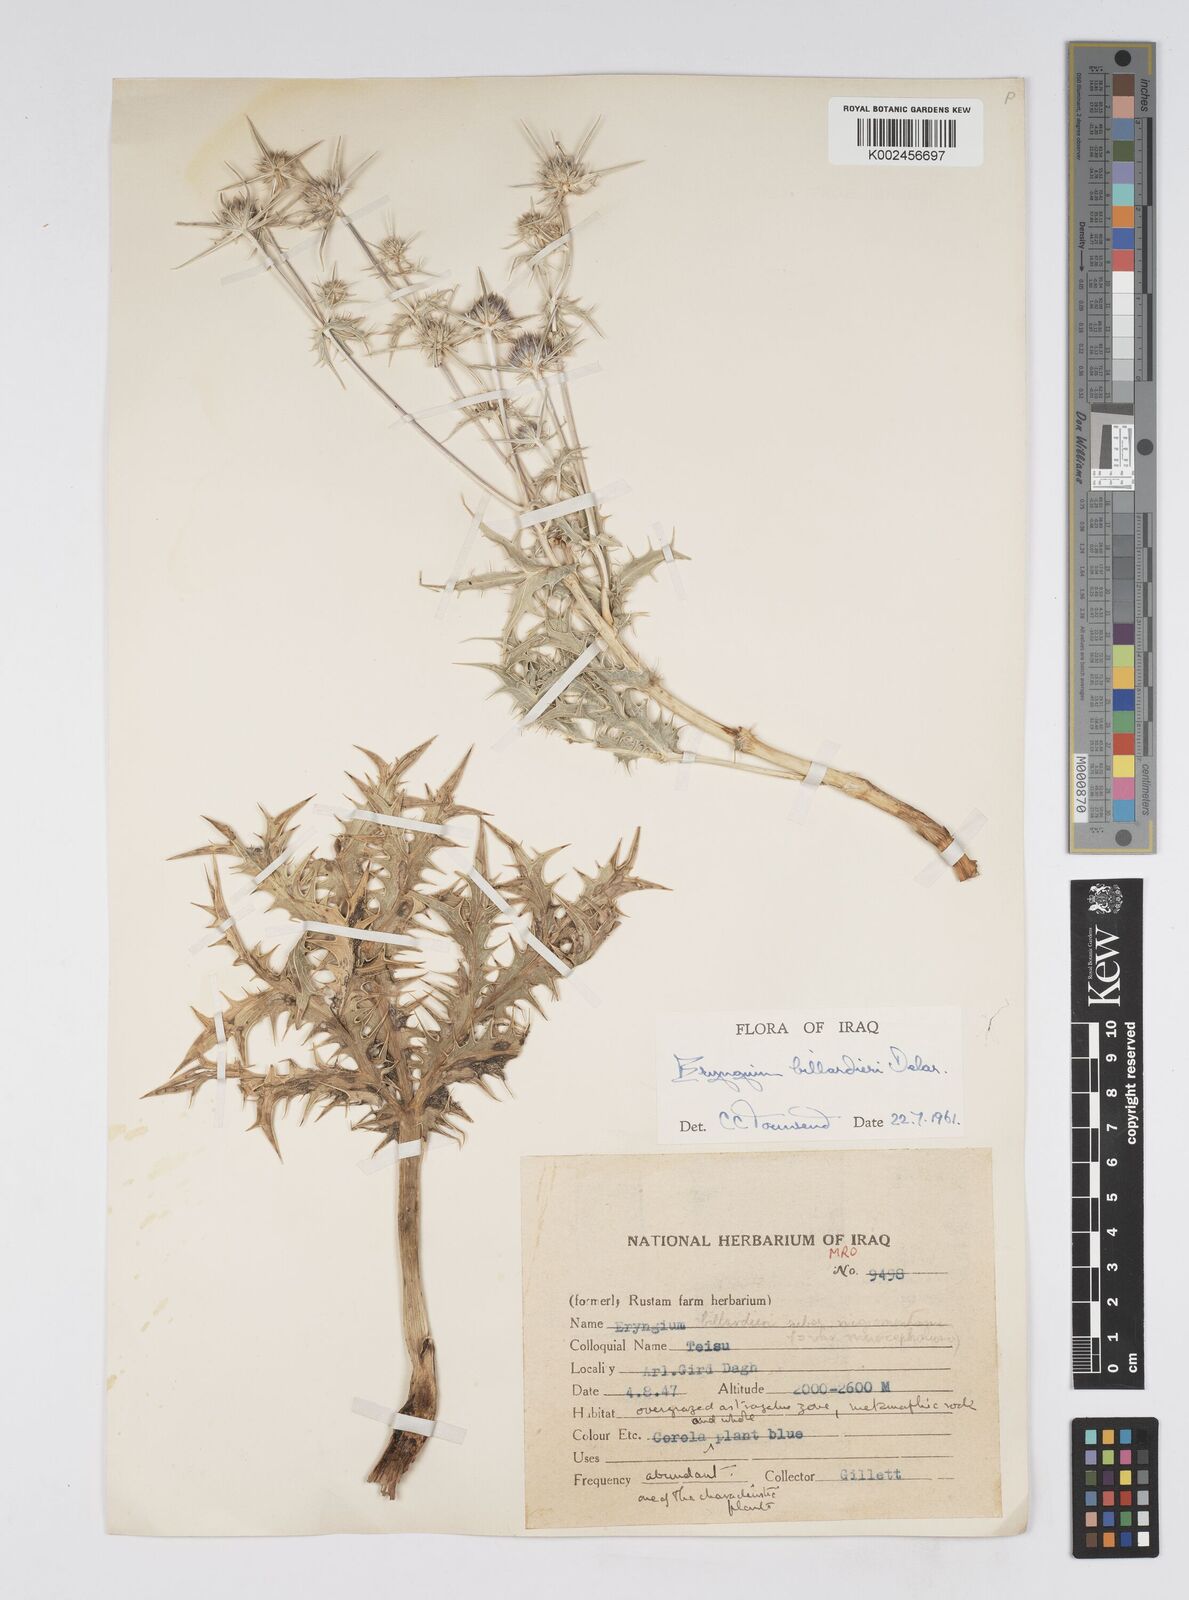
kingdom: Plantae
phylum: Tracheophyta
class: Magnoliopsida
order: Apiales
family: Apiaceae
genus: Eryngium
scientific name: Eryngium billardierei
